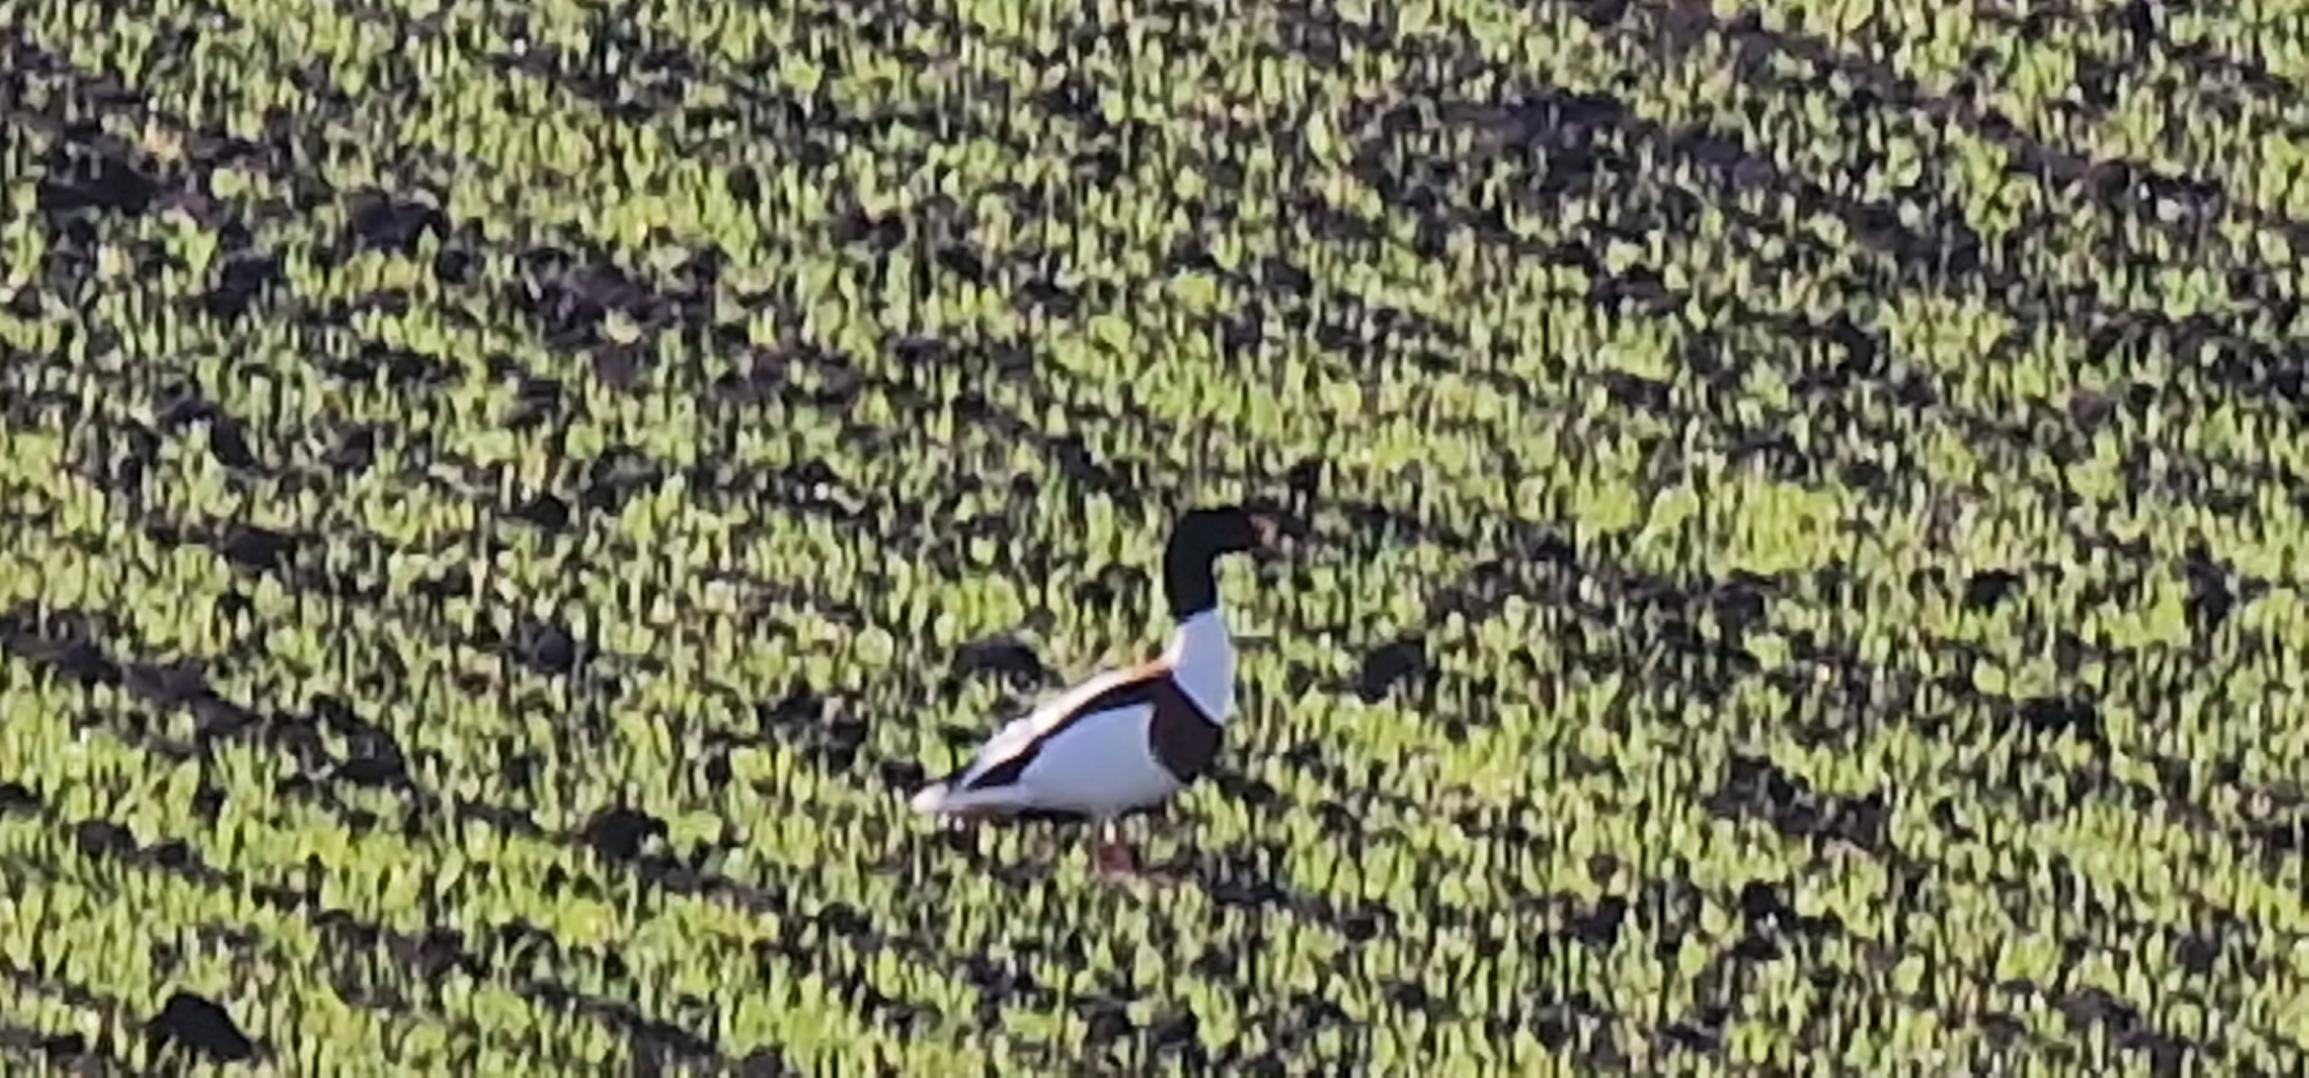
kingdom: Animalia
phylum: Chordata
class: Aves
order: Anseriformes
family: Anatidae
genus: Tadorna
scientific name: Tadorna tadorna
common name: Gravand
